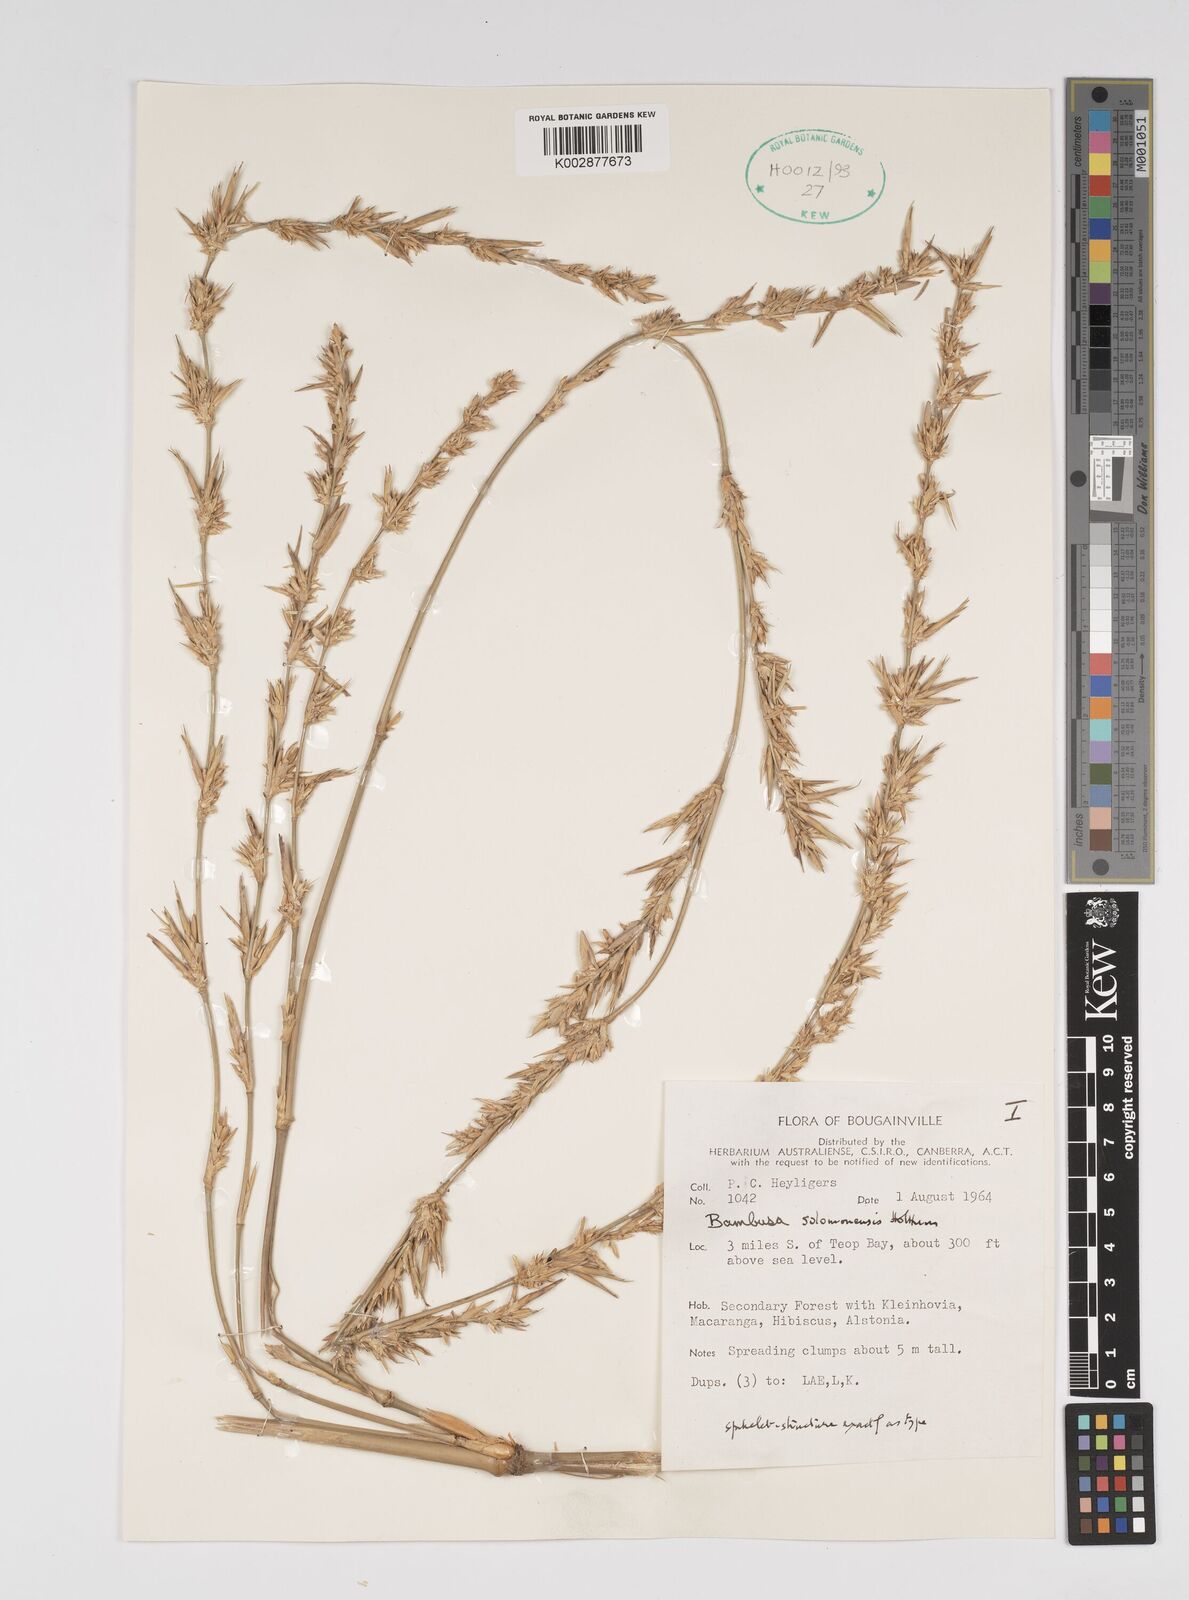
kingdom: Plantae
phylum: Tracheophyta
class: Liliopsida
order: Poales
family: Poaceae
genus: Bambusa
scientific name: Bambusa solomonensis
